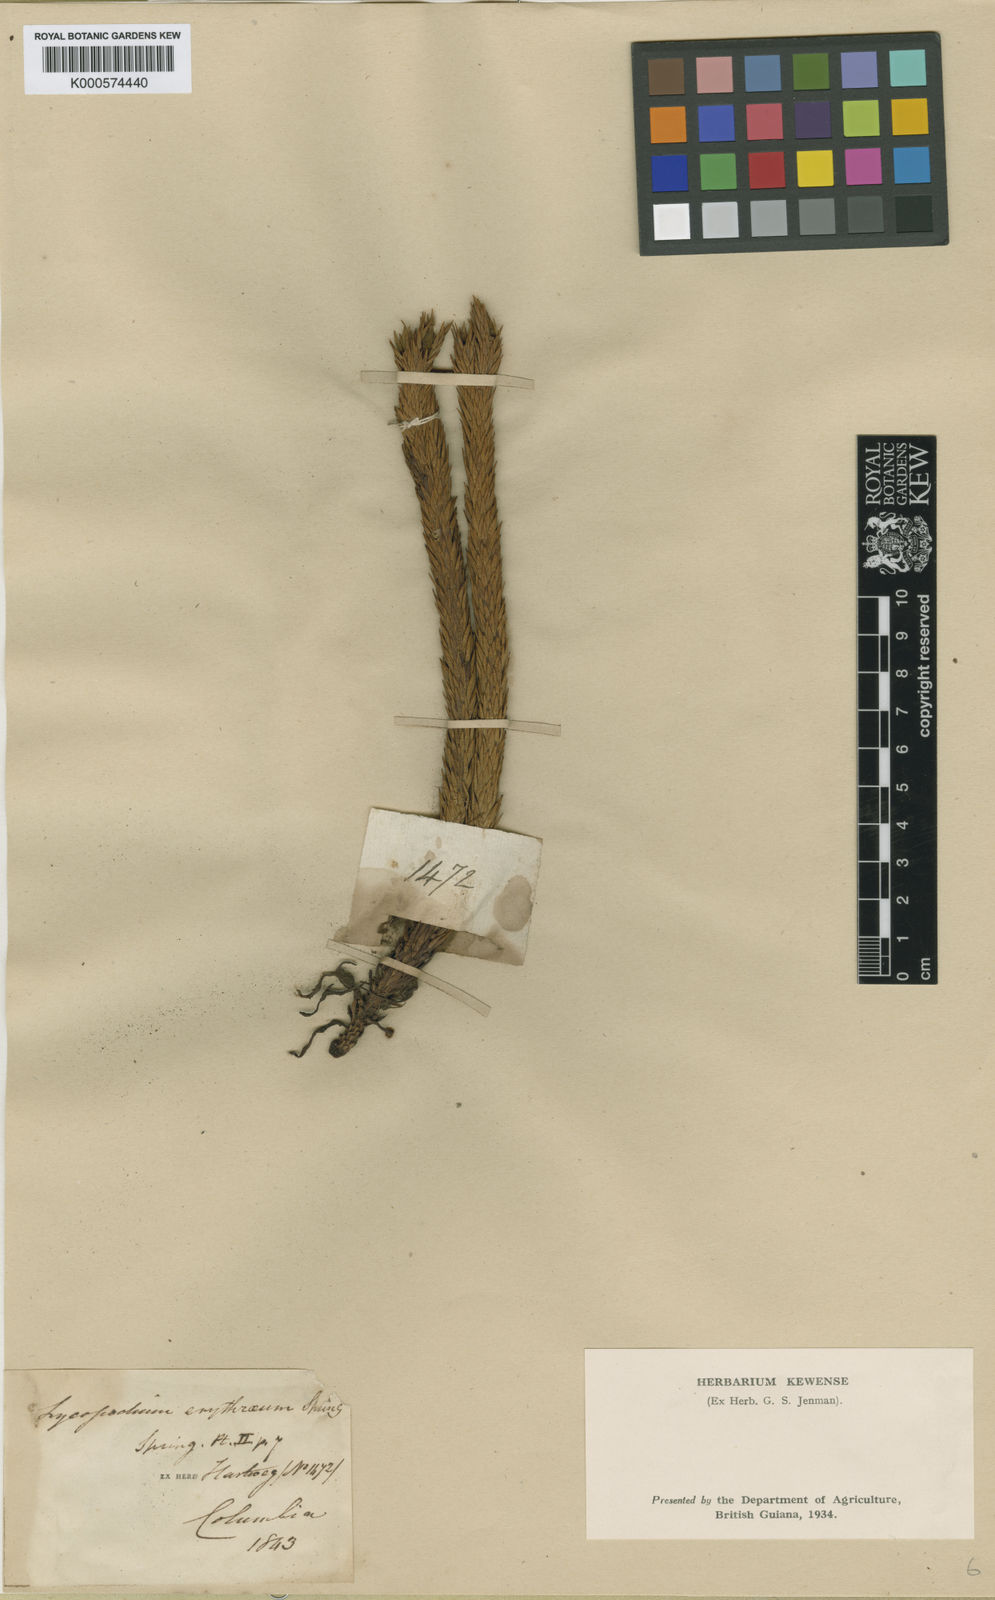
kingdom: Plantae
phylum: Tracheophyta
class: Lycopodiopsida
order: Lycopodiales
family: Lycopodiaceae
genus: Phlegmariurus
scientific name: Phlegmariurus crassus
